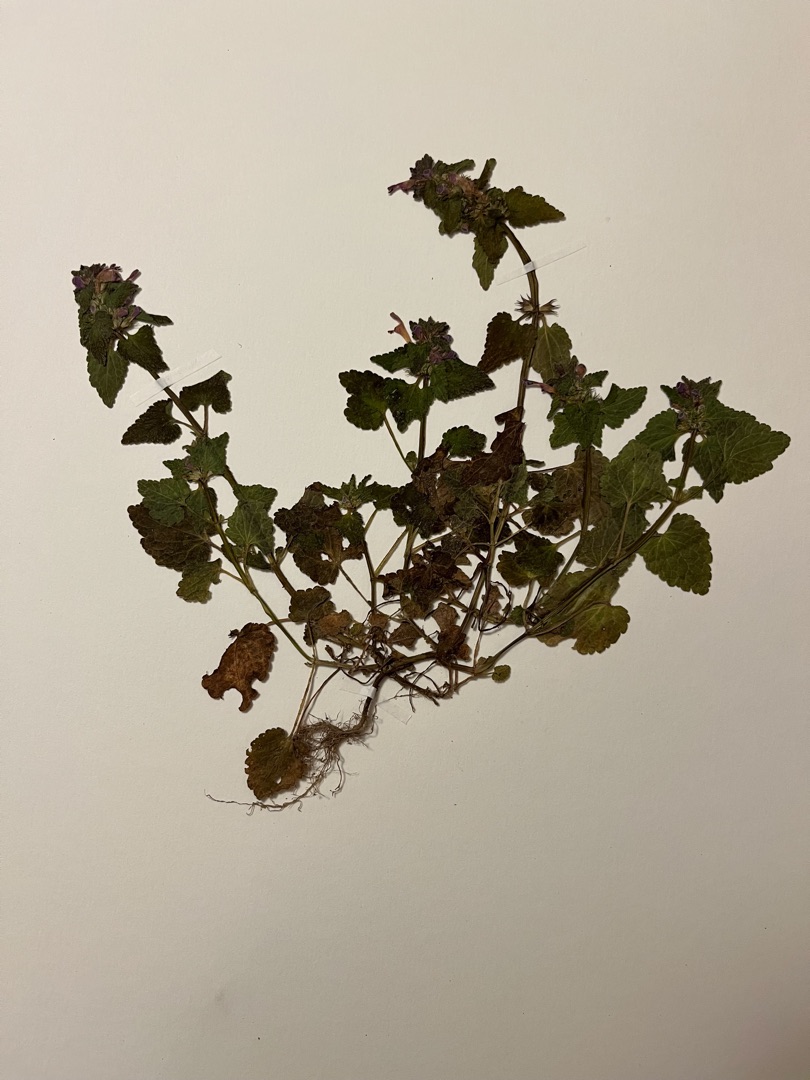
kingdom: Plantae
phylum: Tracheophyta
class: Magnoliopsida
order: Lamiales
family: Lamiaceae
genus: Lamium
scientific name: Lamium purpureum
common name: Rød tvetand
